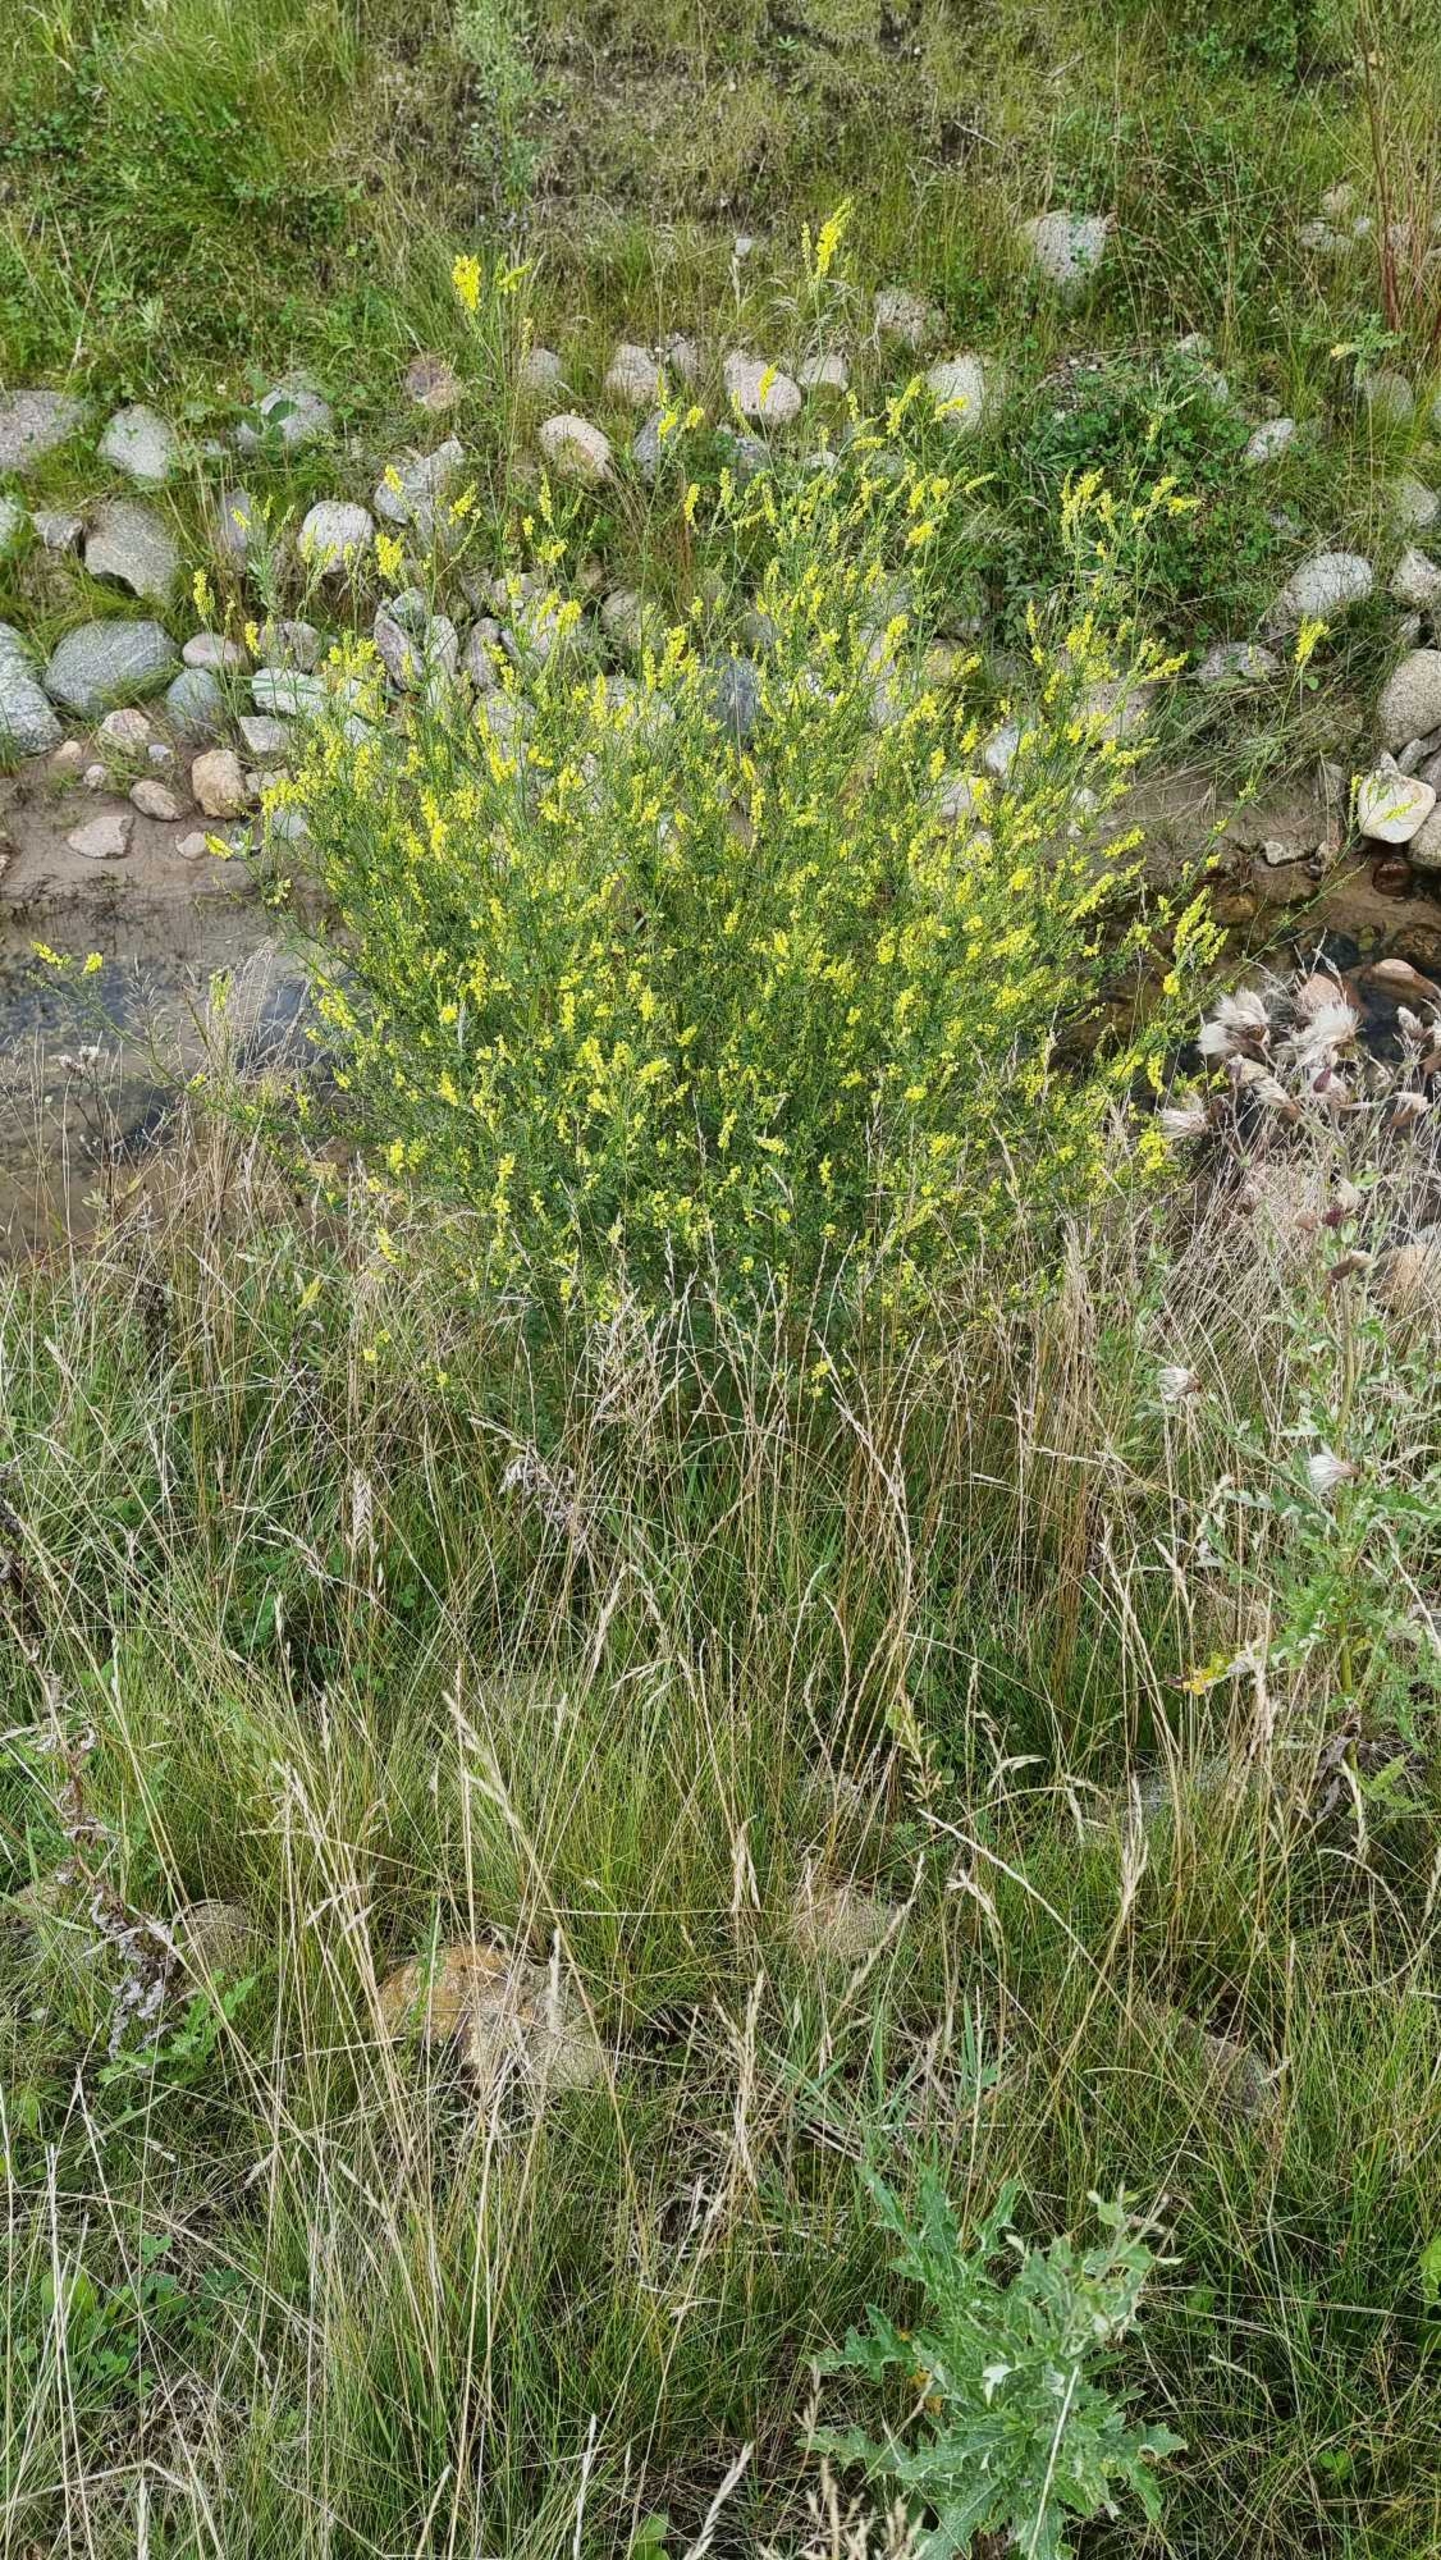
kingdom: Plantae
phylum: Tracheophyta
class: Magnoliopsida
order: Fabales
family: Fabaceae
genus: Melilotus
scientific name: Melilotus officinalis
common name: Mark-stenkløver
